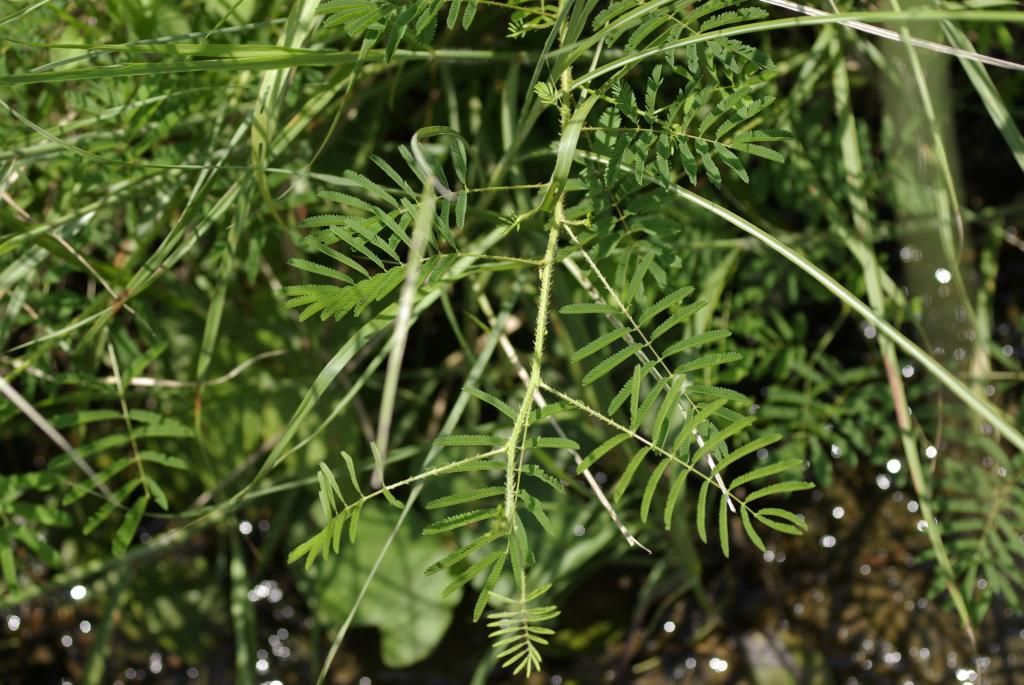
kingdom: Plantae
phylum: Tracheophyta
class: Magnoliopsida
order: Fabales
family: Fabaceae
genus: Mimosa
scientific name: Mimosa diplotricha
